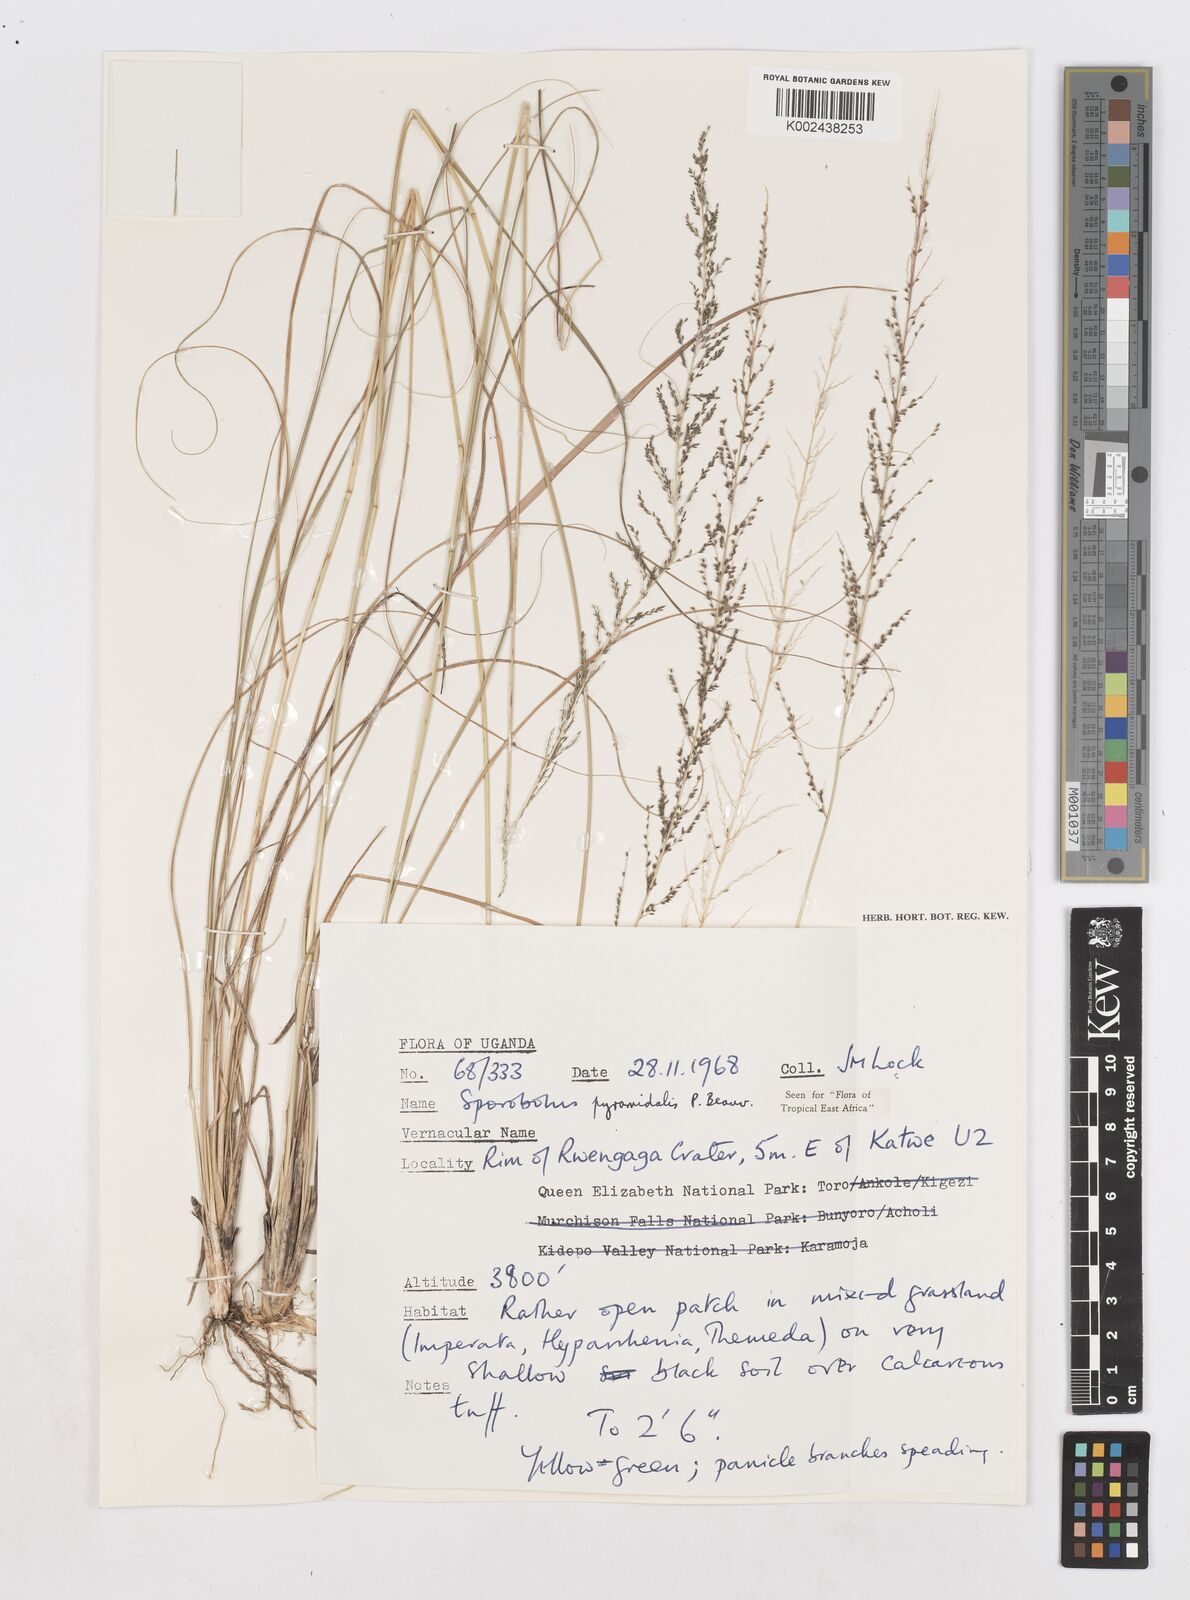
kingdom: Plantae
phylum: Tracheophyta
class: Liliopsida
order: Poales
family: Poaceae
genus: Sporobolus
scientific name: Sporobolus pyramidalis
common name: West indian dropseed
